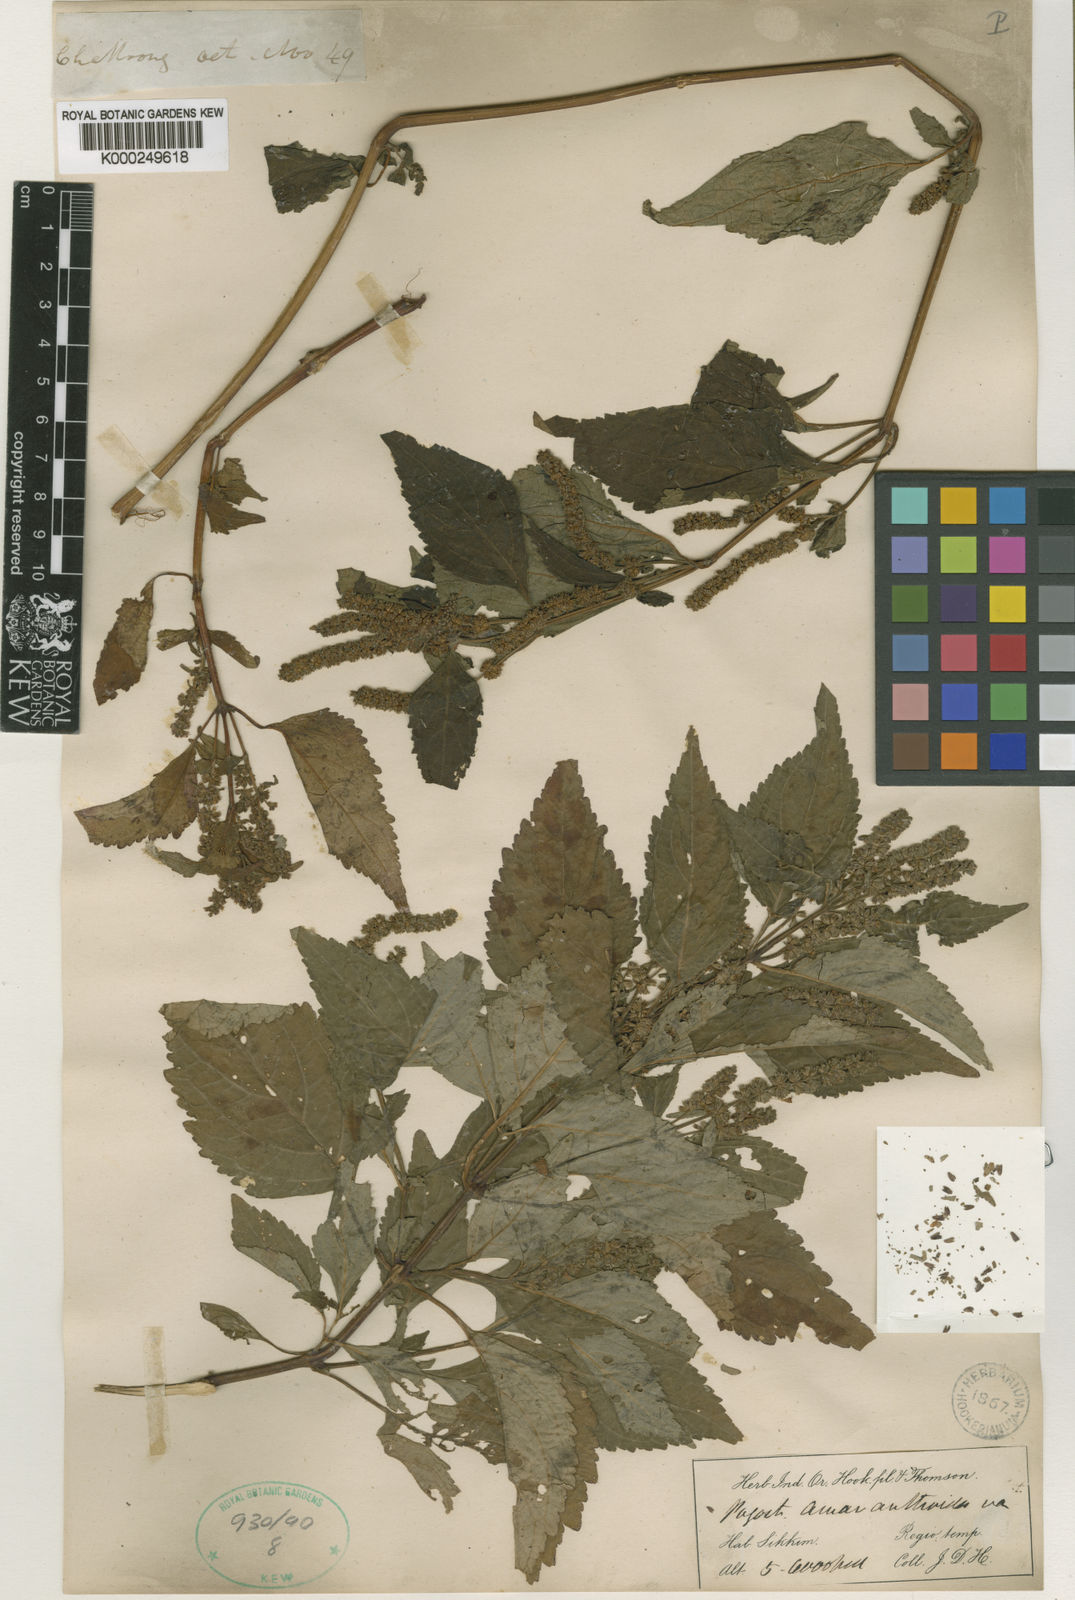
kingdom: Plantae
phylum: Tracheophyta
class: Magnoliopsida
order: Lamiales
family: Lamiaceae
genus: Pogostemon
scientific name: Pogostemon amaranthoides
